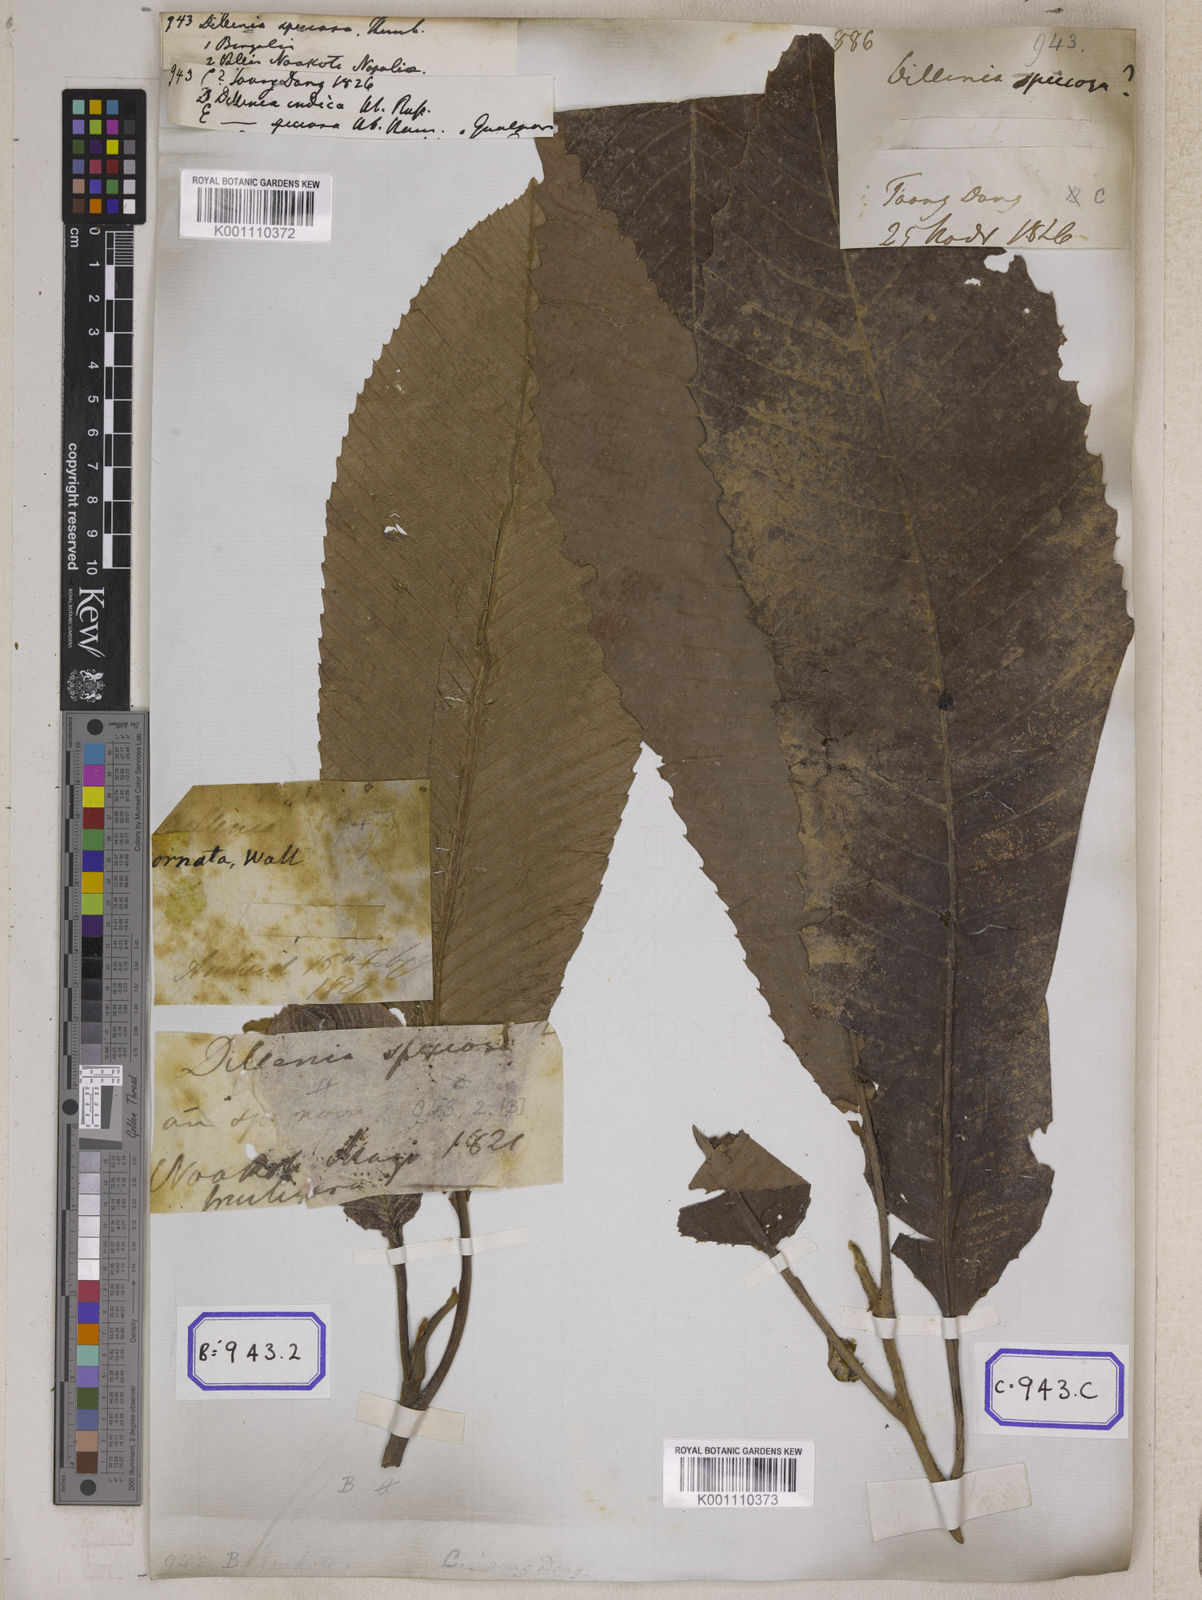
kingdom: Plantae
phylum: Tracheophyta
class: Magnoliopsida
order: Dilleniales
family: Dilleniaceae
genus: Dillenia
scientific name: Dillenia indica
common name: Elephant apple
